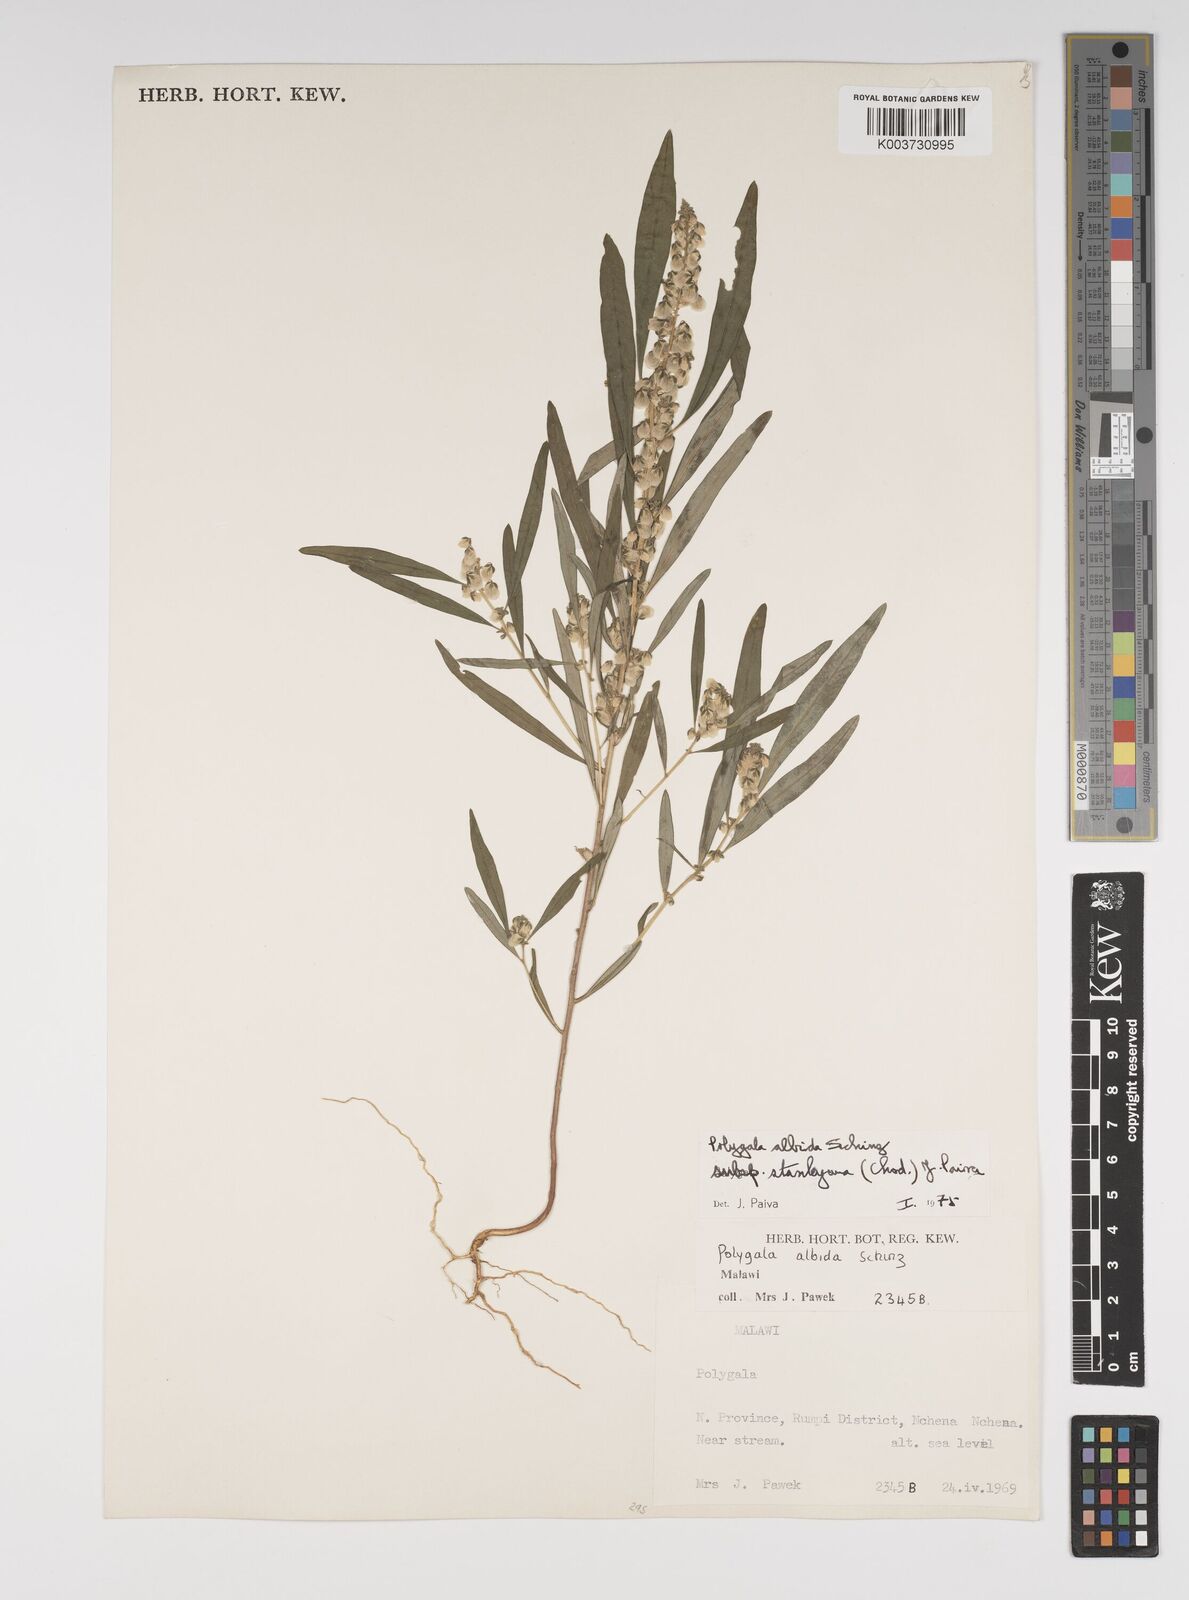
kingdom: Plantae
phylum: Tracheophyta
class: Magnoliopsida
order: Fabales
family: Polygalaceae
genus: Polygala
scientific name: Polygala albida
